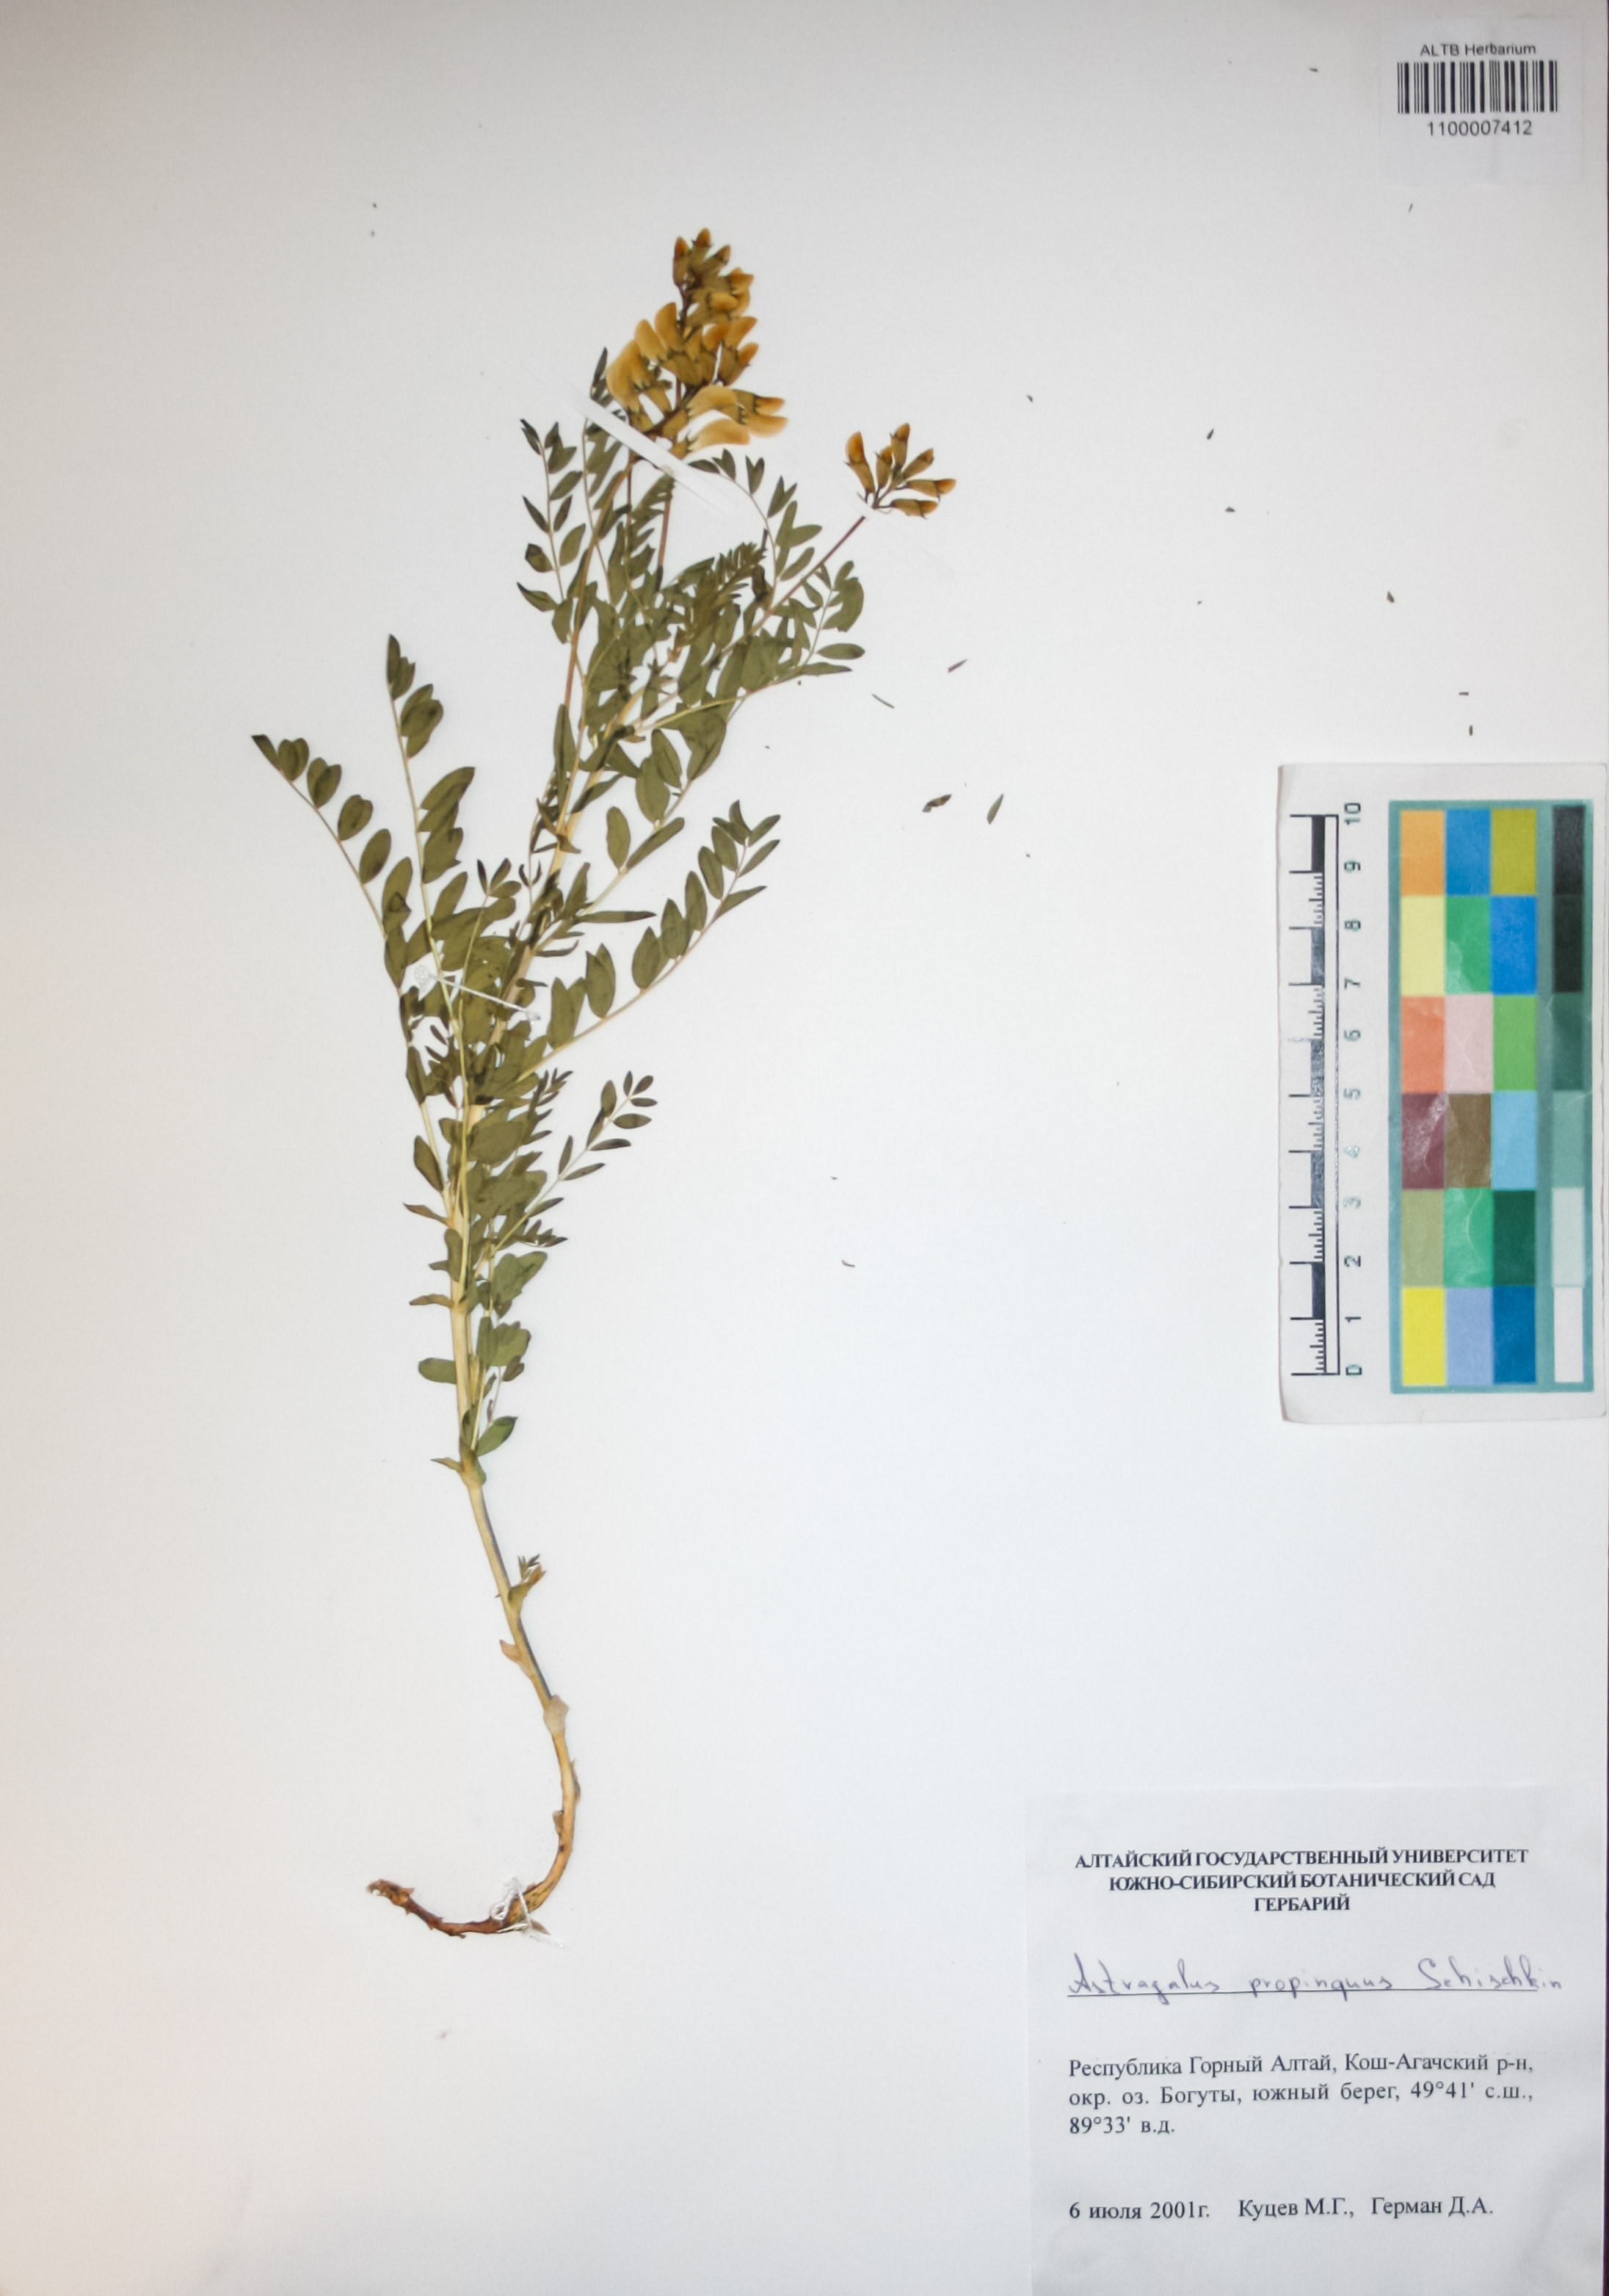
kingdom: Plantae
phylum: Tracheophyta
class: Magnoliopsida
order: Fabales
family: Fabaceae
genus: Astragalus
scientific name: Astragalus mongholicus
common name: Membranous milk-vetch
